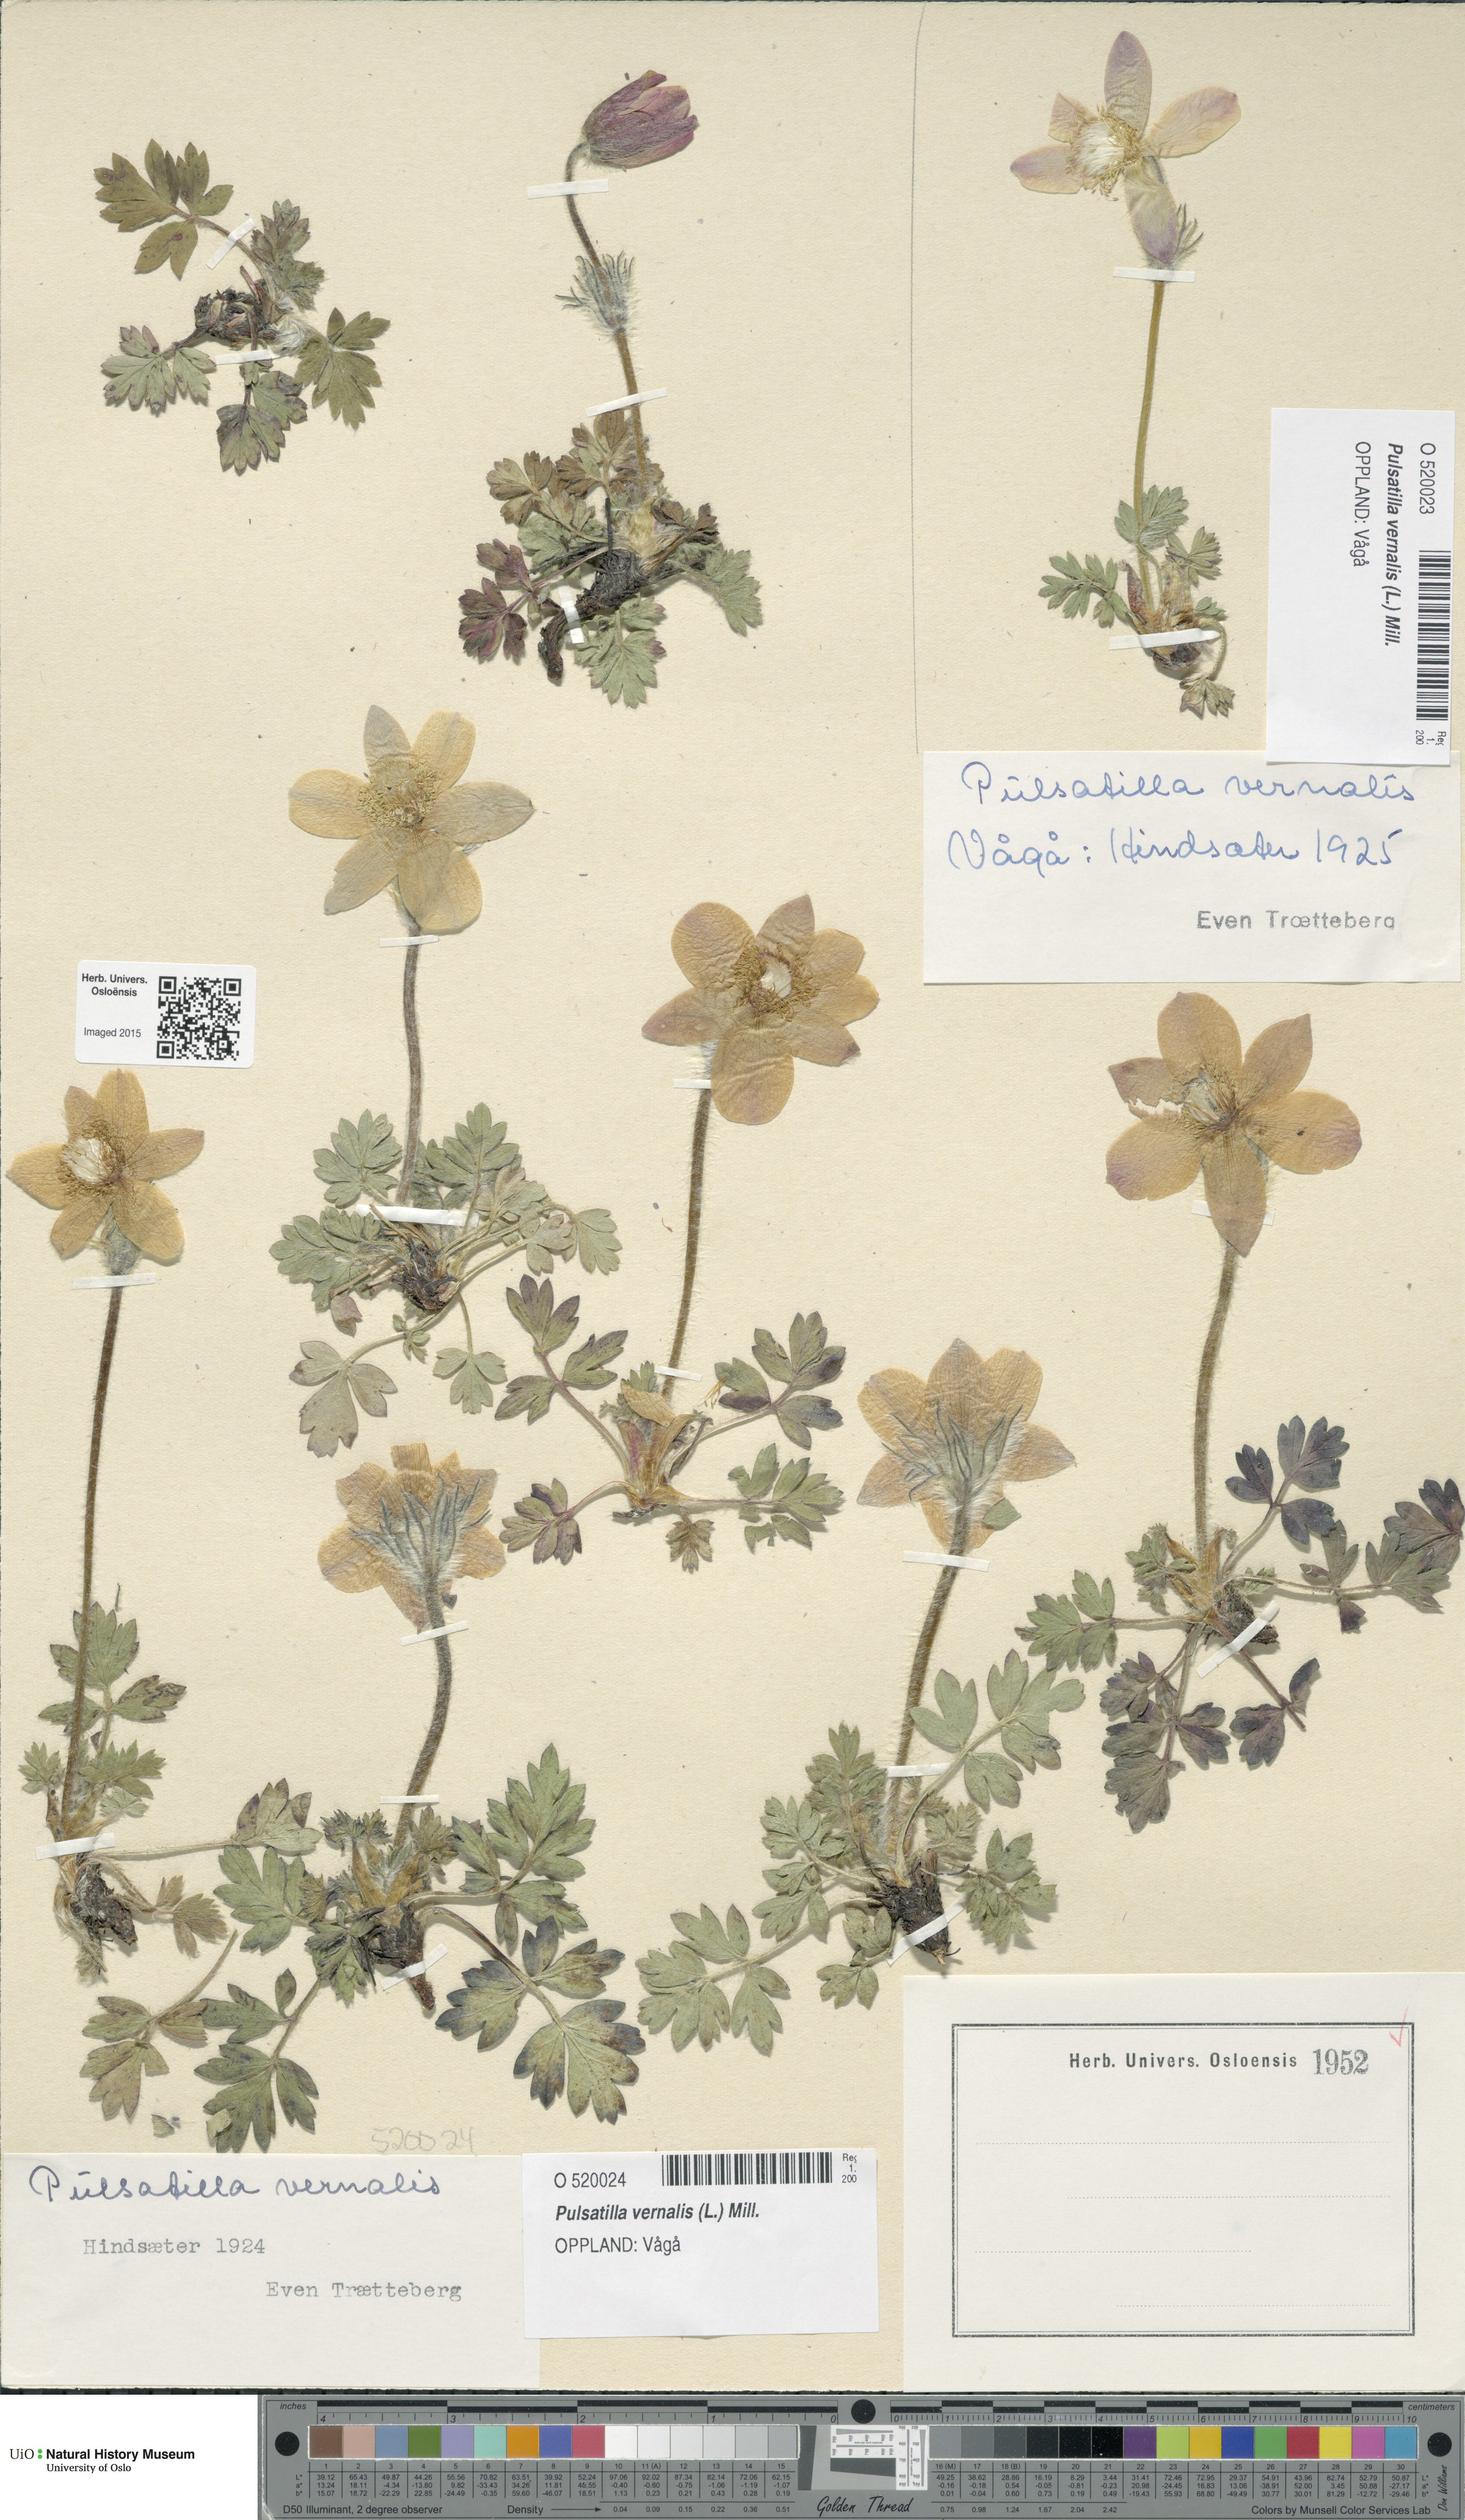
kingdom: Plantae
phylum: Tracheophyta
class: Magnoliopsida
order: Ranunculales
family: Ranunculaceae
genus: Pulsatilla
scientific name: Pulsatilla vernalis
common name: Spring pasque flower
